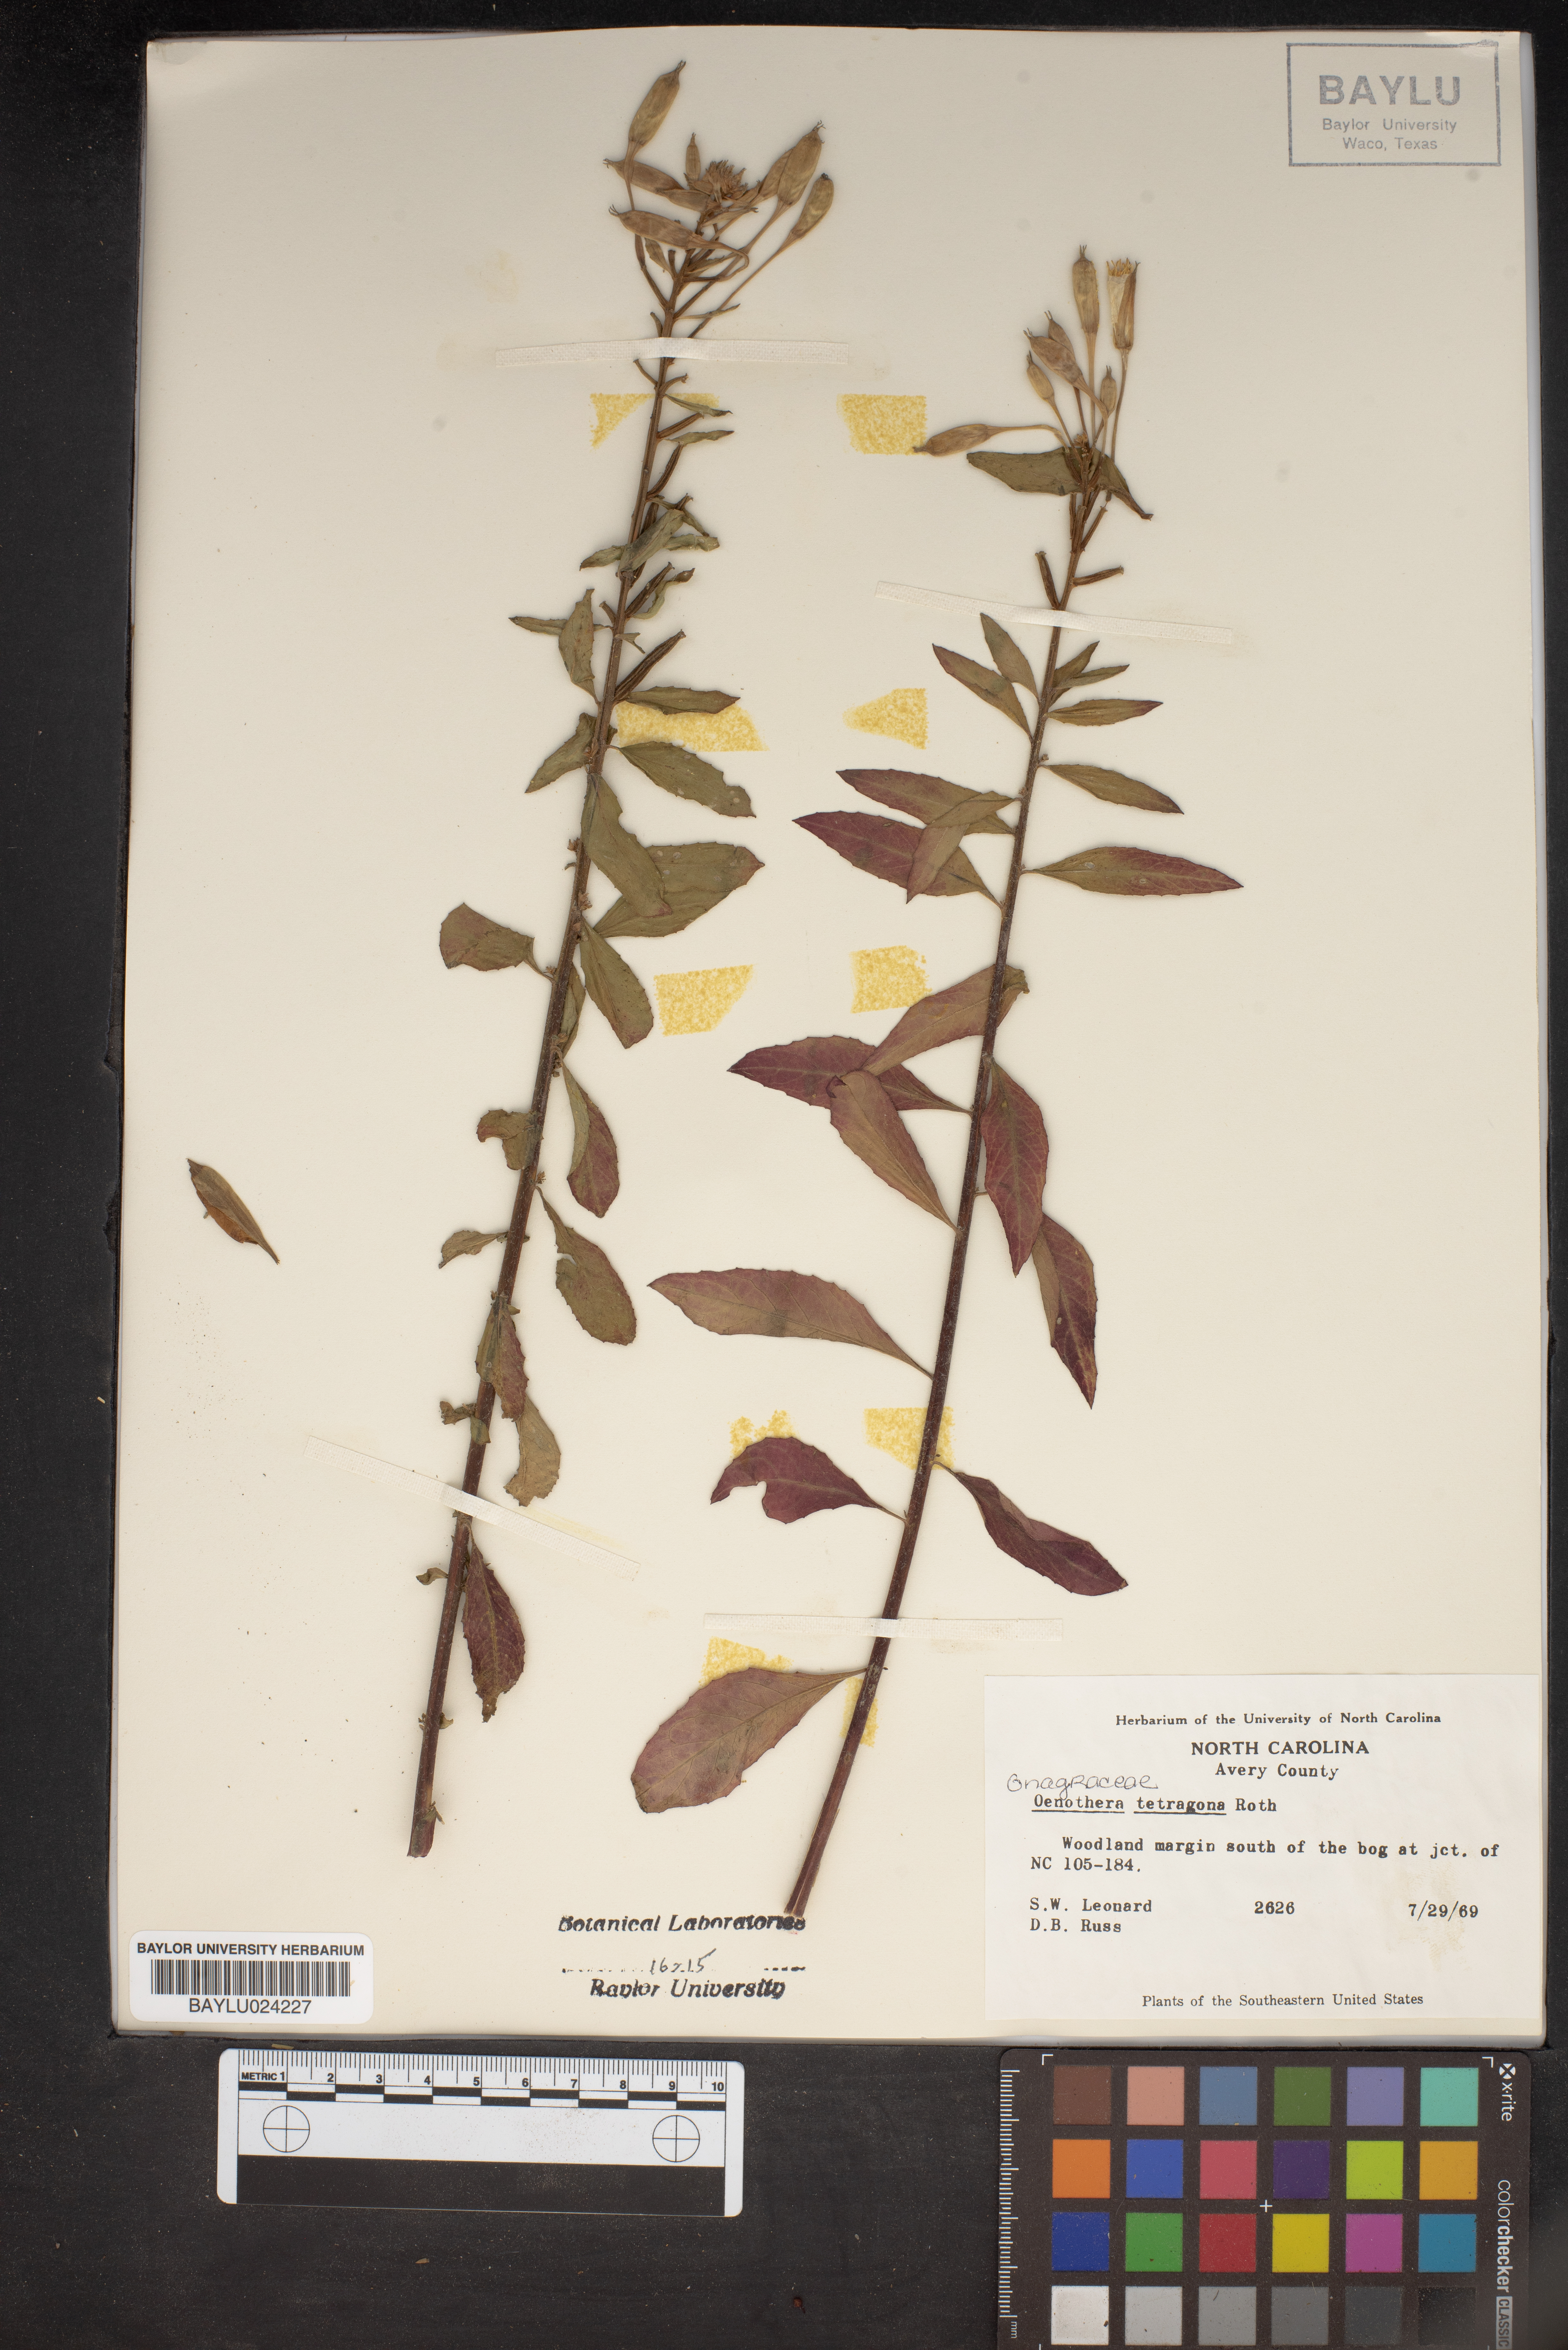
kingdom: Plantae
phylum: Tracheophyta
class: Magnoliopsida
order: Myrtales
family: Onagraceae
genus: Oenothera
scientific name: Oenothera tetragona
